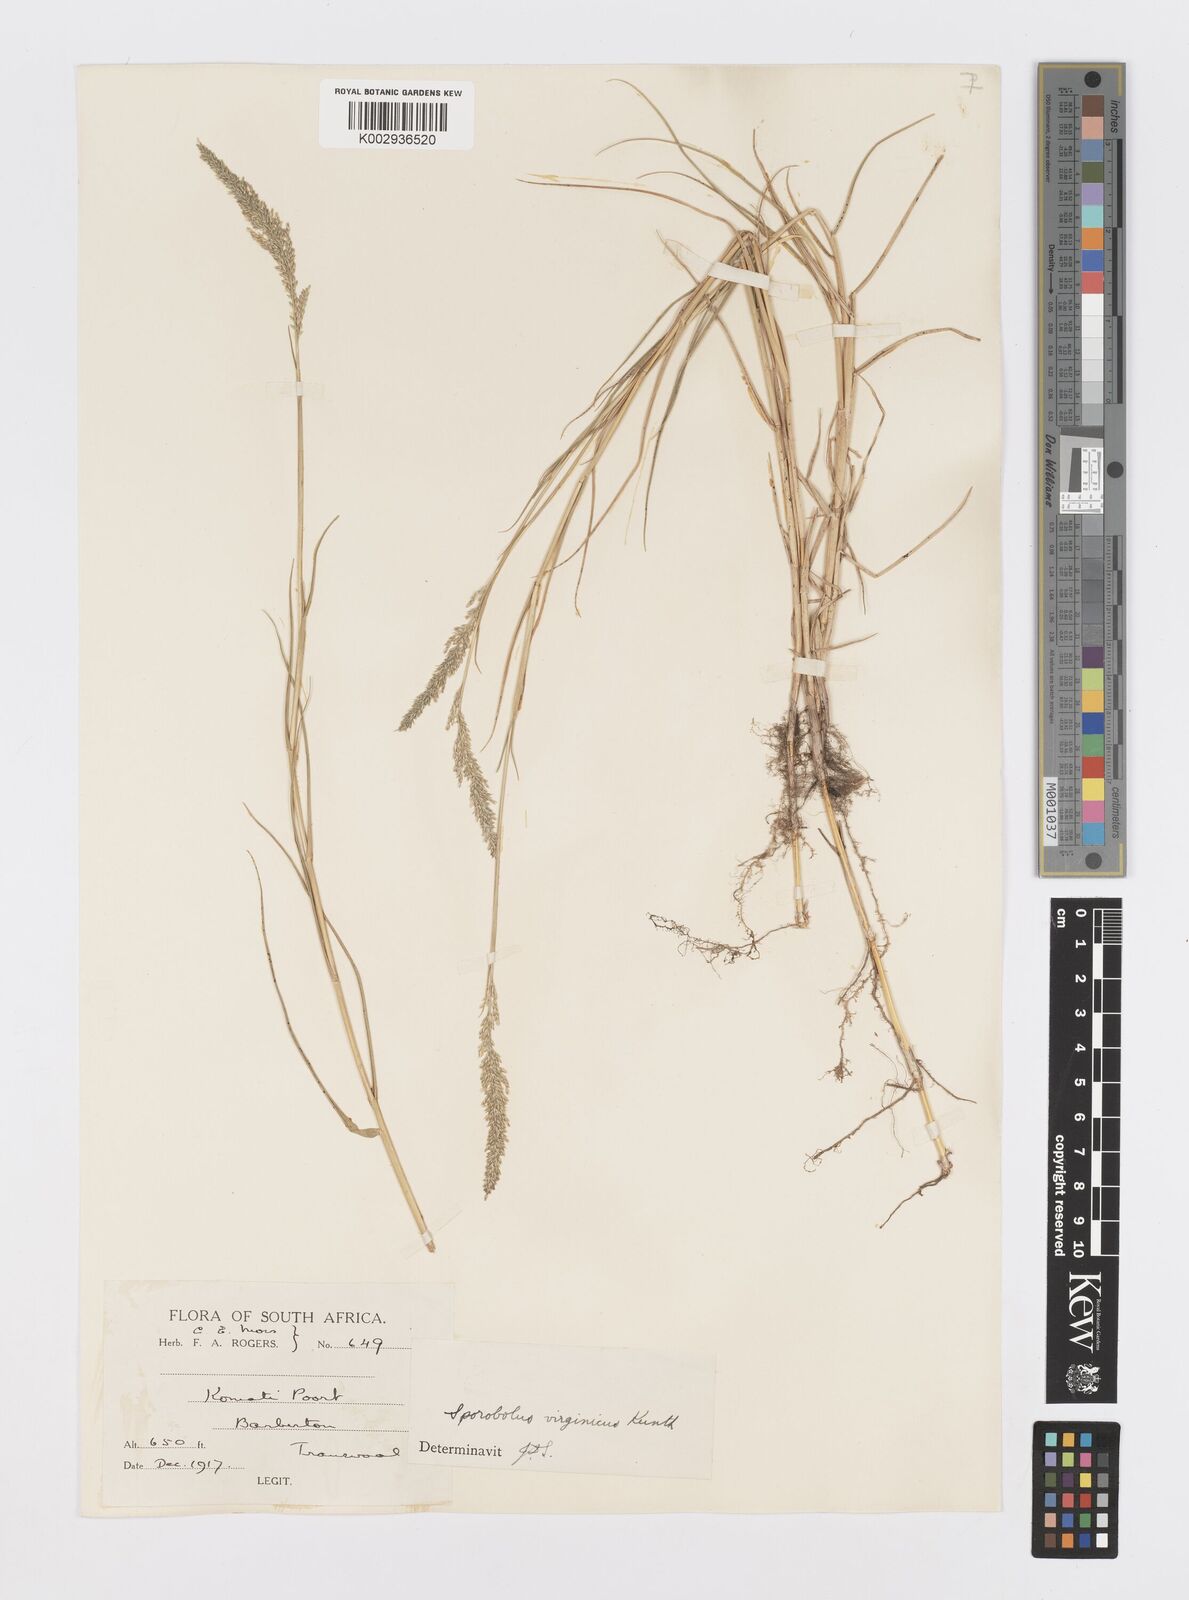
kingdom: Plantae
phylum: Tracheophyta
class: Liliopsida
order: Poales
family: Poaceae
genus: Sporobolus
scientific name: Sporobolus virginicus
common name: Beach dropseed
